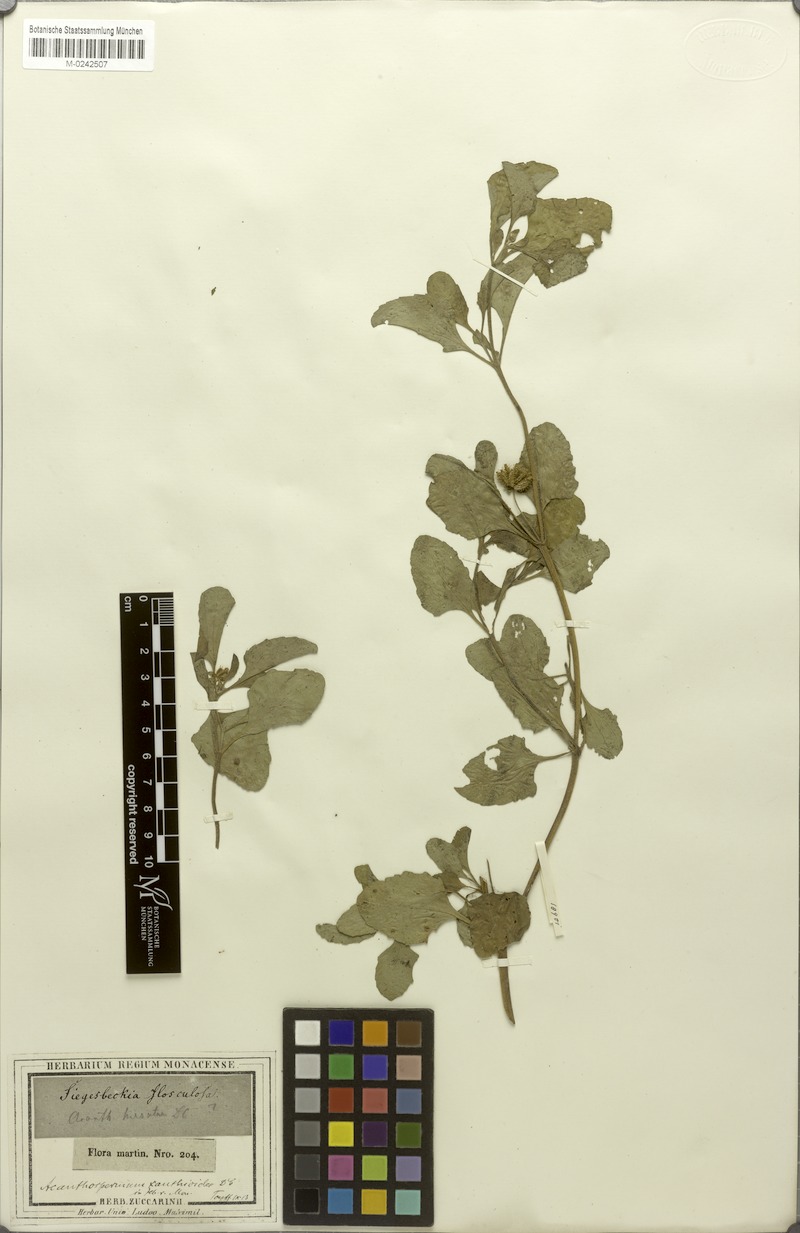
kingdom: Plantae
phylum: Tracheophyta
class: Magnoliopsida
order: Asterales
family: Asteraceae
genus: Acanthospermum
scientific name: Acanthospermum australe
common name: Paraguayan starbur
